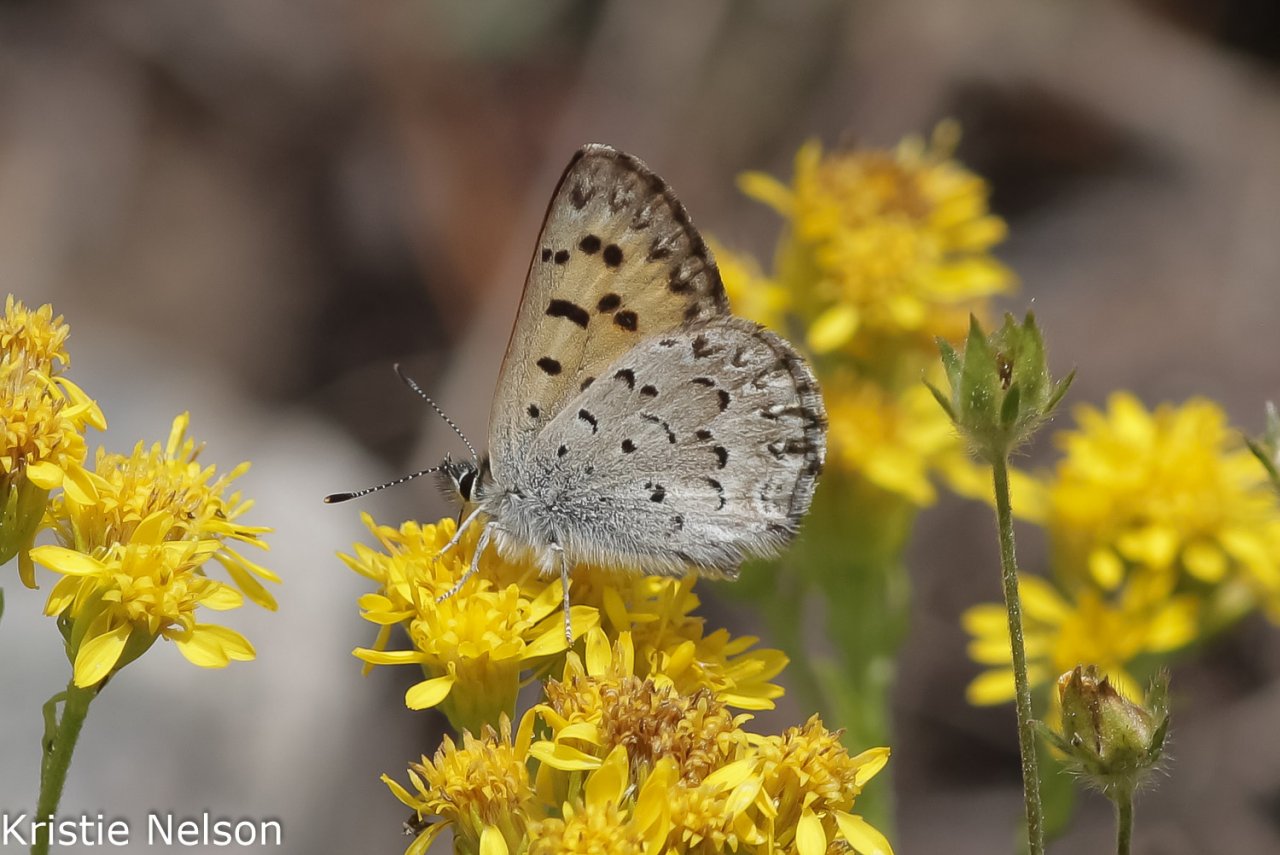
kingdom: Animalia
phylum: Arthropoda
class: Insecta
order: Lepidoptera
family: Lycaenidae
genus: Lycaena
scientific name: Lycaena mariposa
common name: Mariposa Copper
